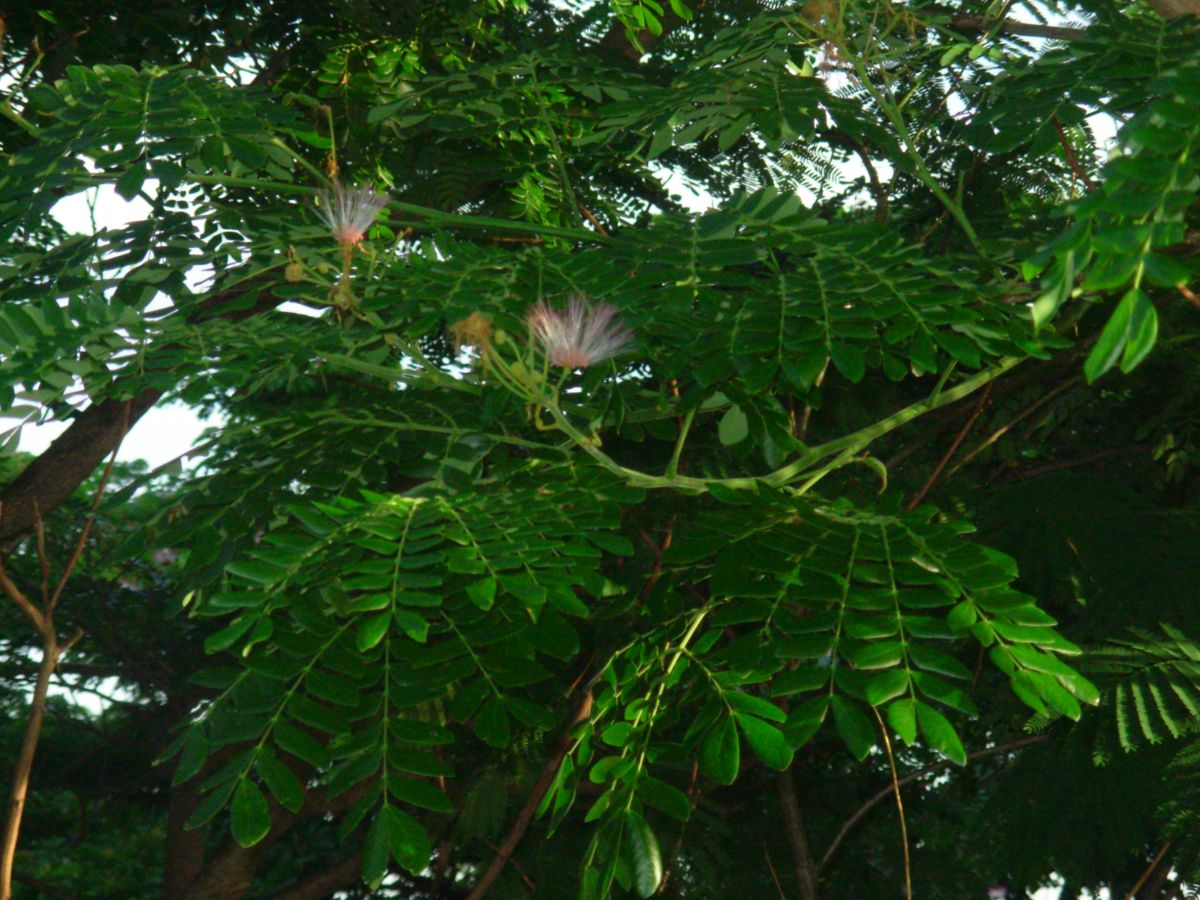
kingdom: Plantae
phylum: Tracheophyta
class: Magnoliopsida
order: Fabales
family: Fabaceae
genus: Samanea
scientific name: Samanea saman
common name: Raintree
